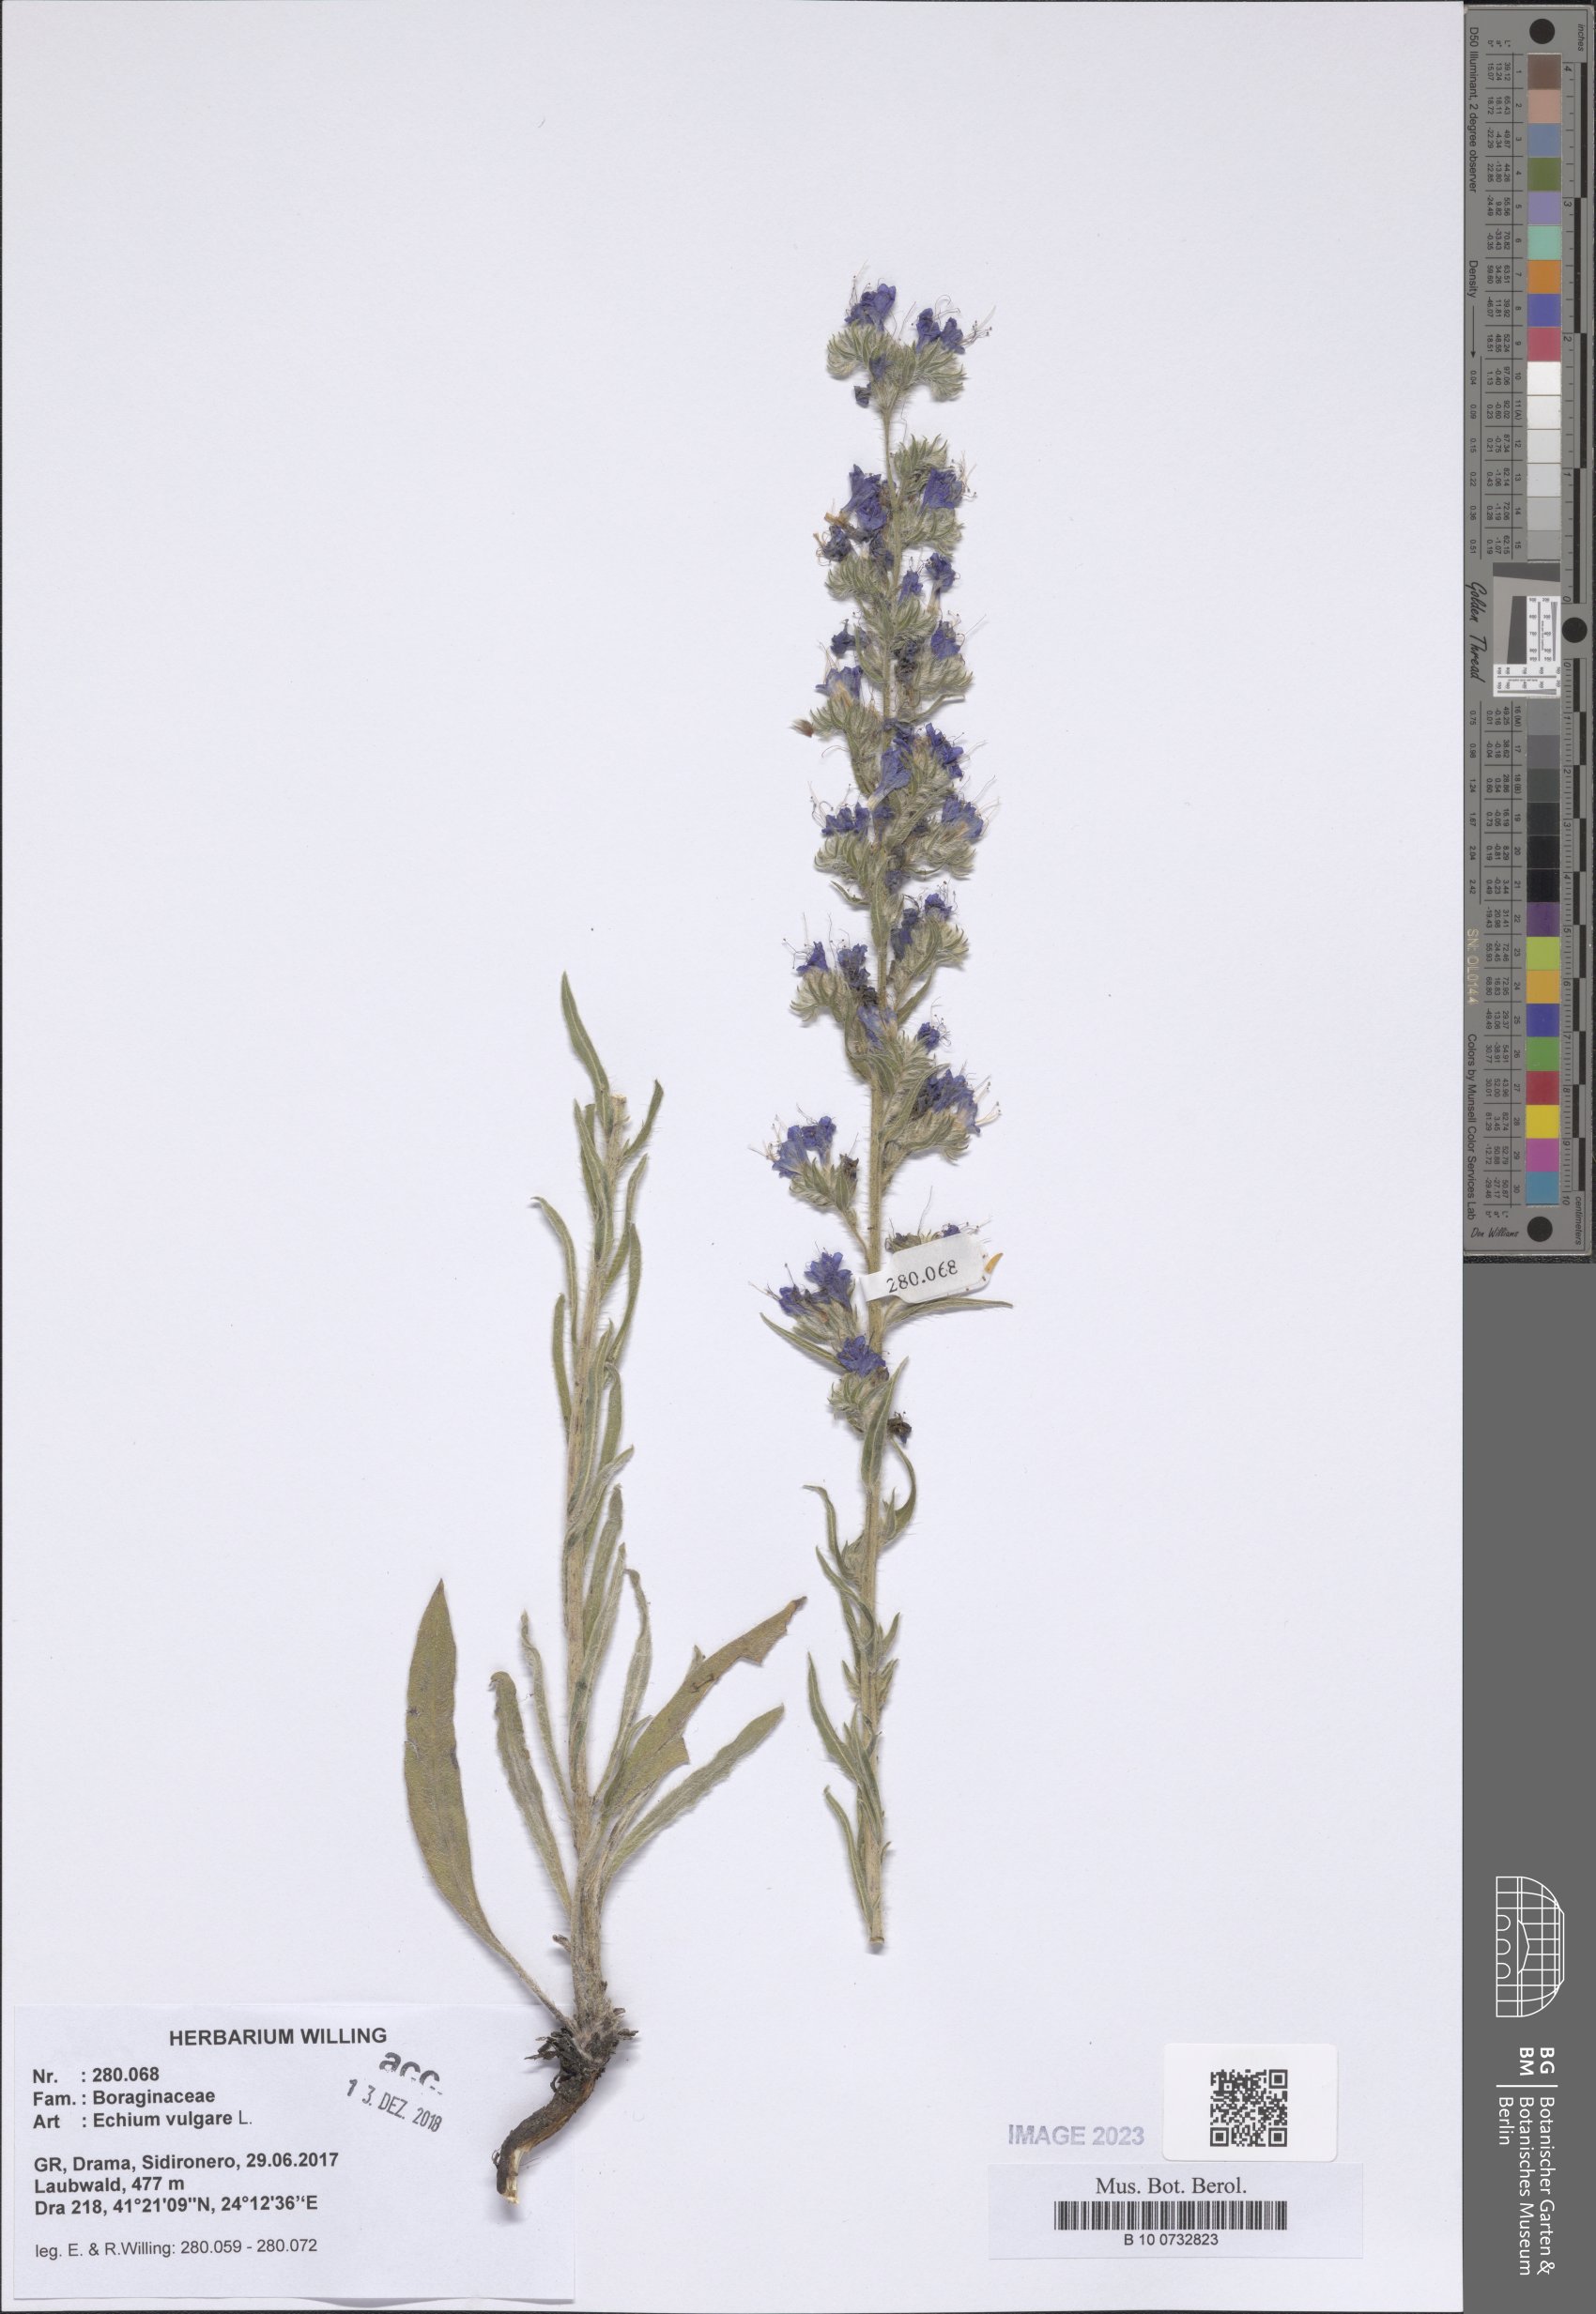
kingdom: Plantae
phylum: Tracheophyta
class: Magnoliopsida
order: Boraginales
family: Boraginaceae
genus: Echium
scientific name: Echium vulgare
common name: Common viper's bugloss
